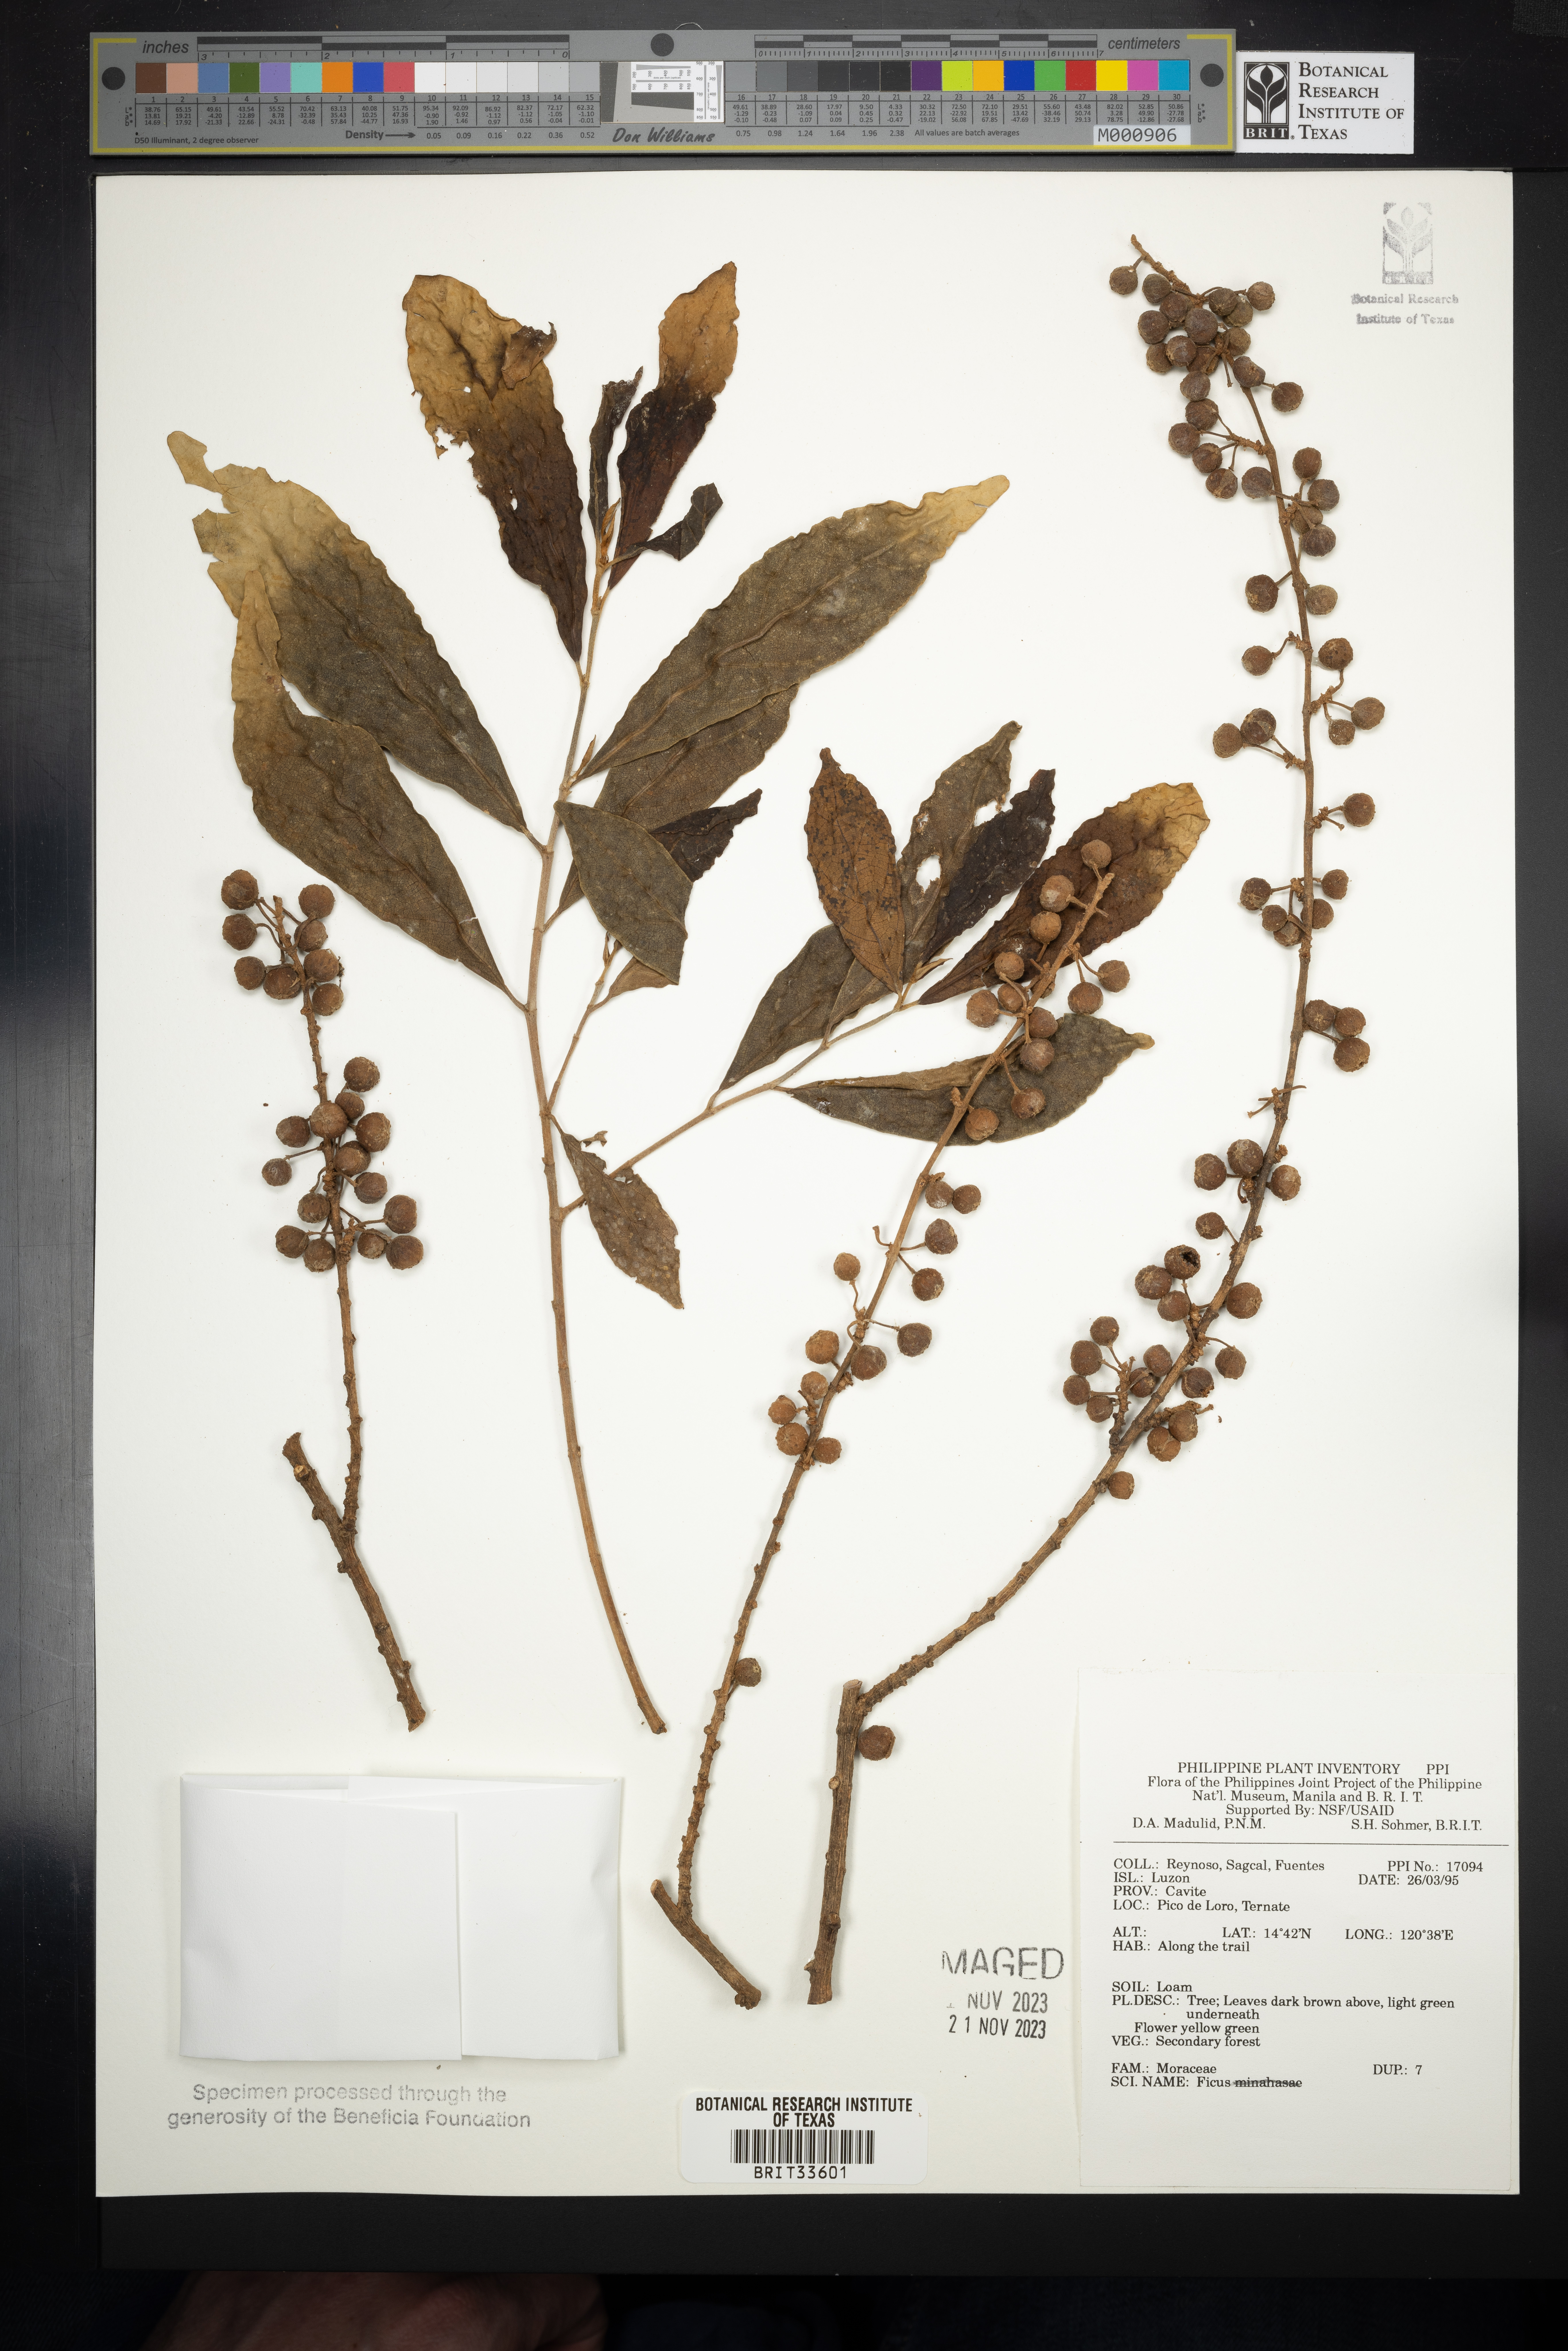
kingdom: Plantae
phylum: Tracheophyta
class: Magnoliopsida
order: Rosales
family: Moraceae
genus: Ficus
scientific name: Ficus
